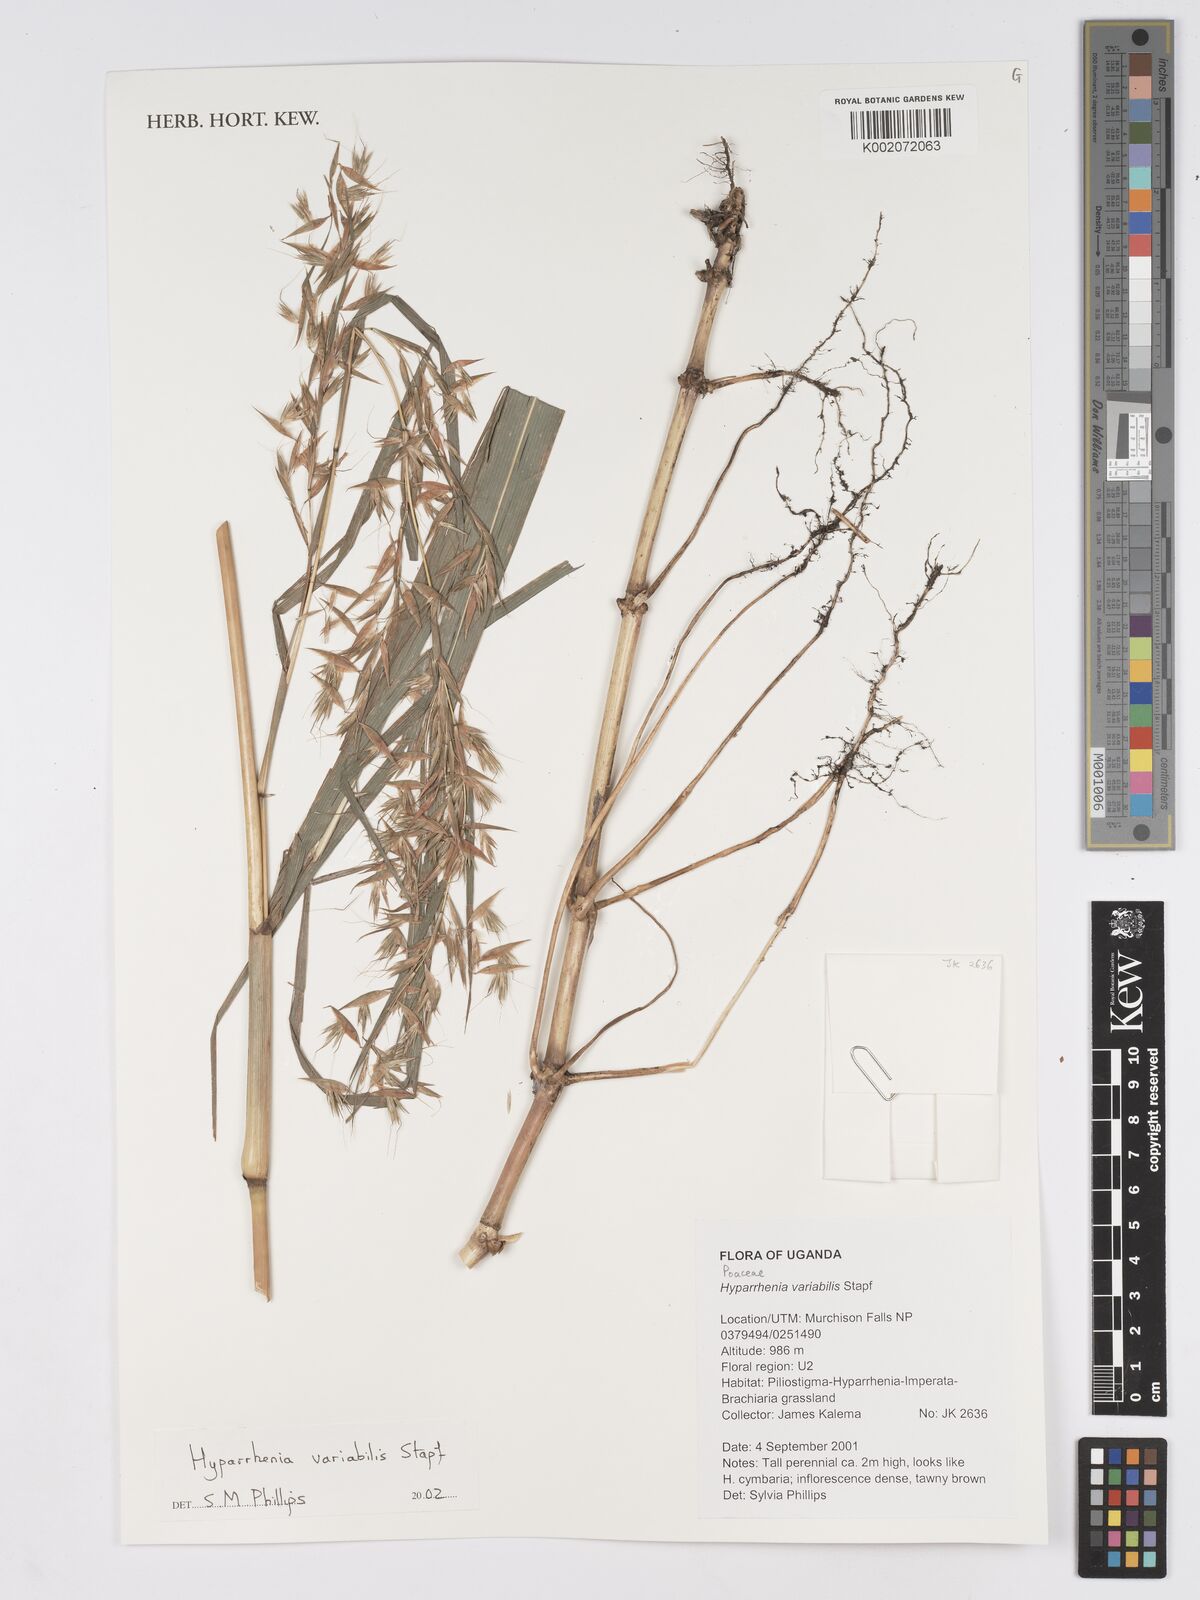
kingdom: Plantae
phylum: Tracheophyta
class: Liliopsida
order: Poales
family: Poaceae
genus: Hyparrhenia
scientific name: Hyparrhenia variabilis
